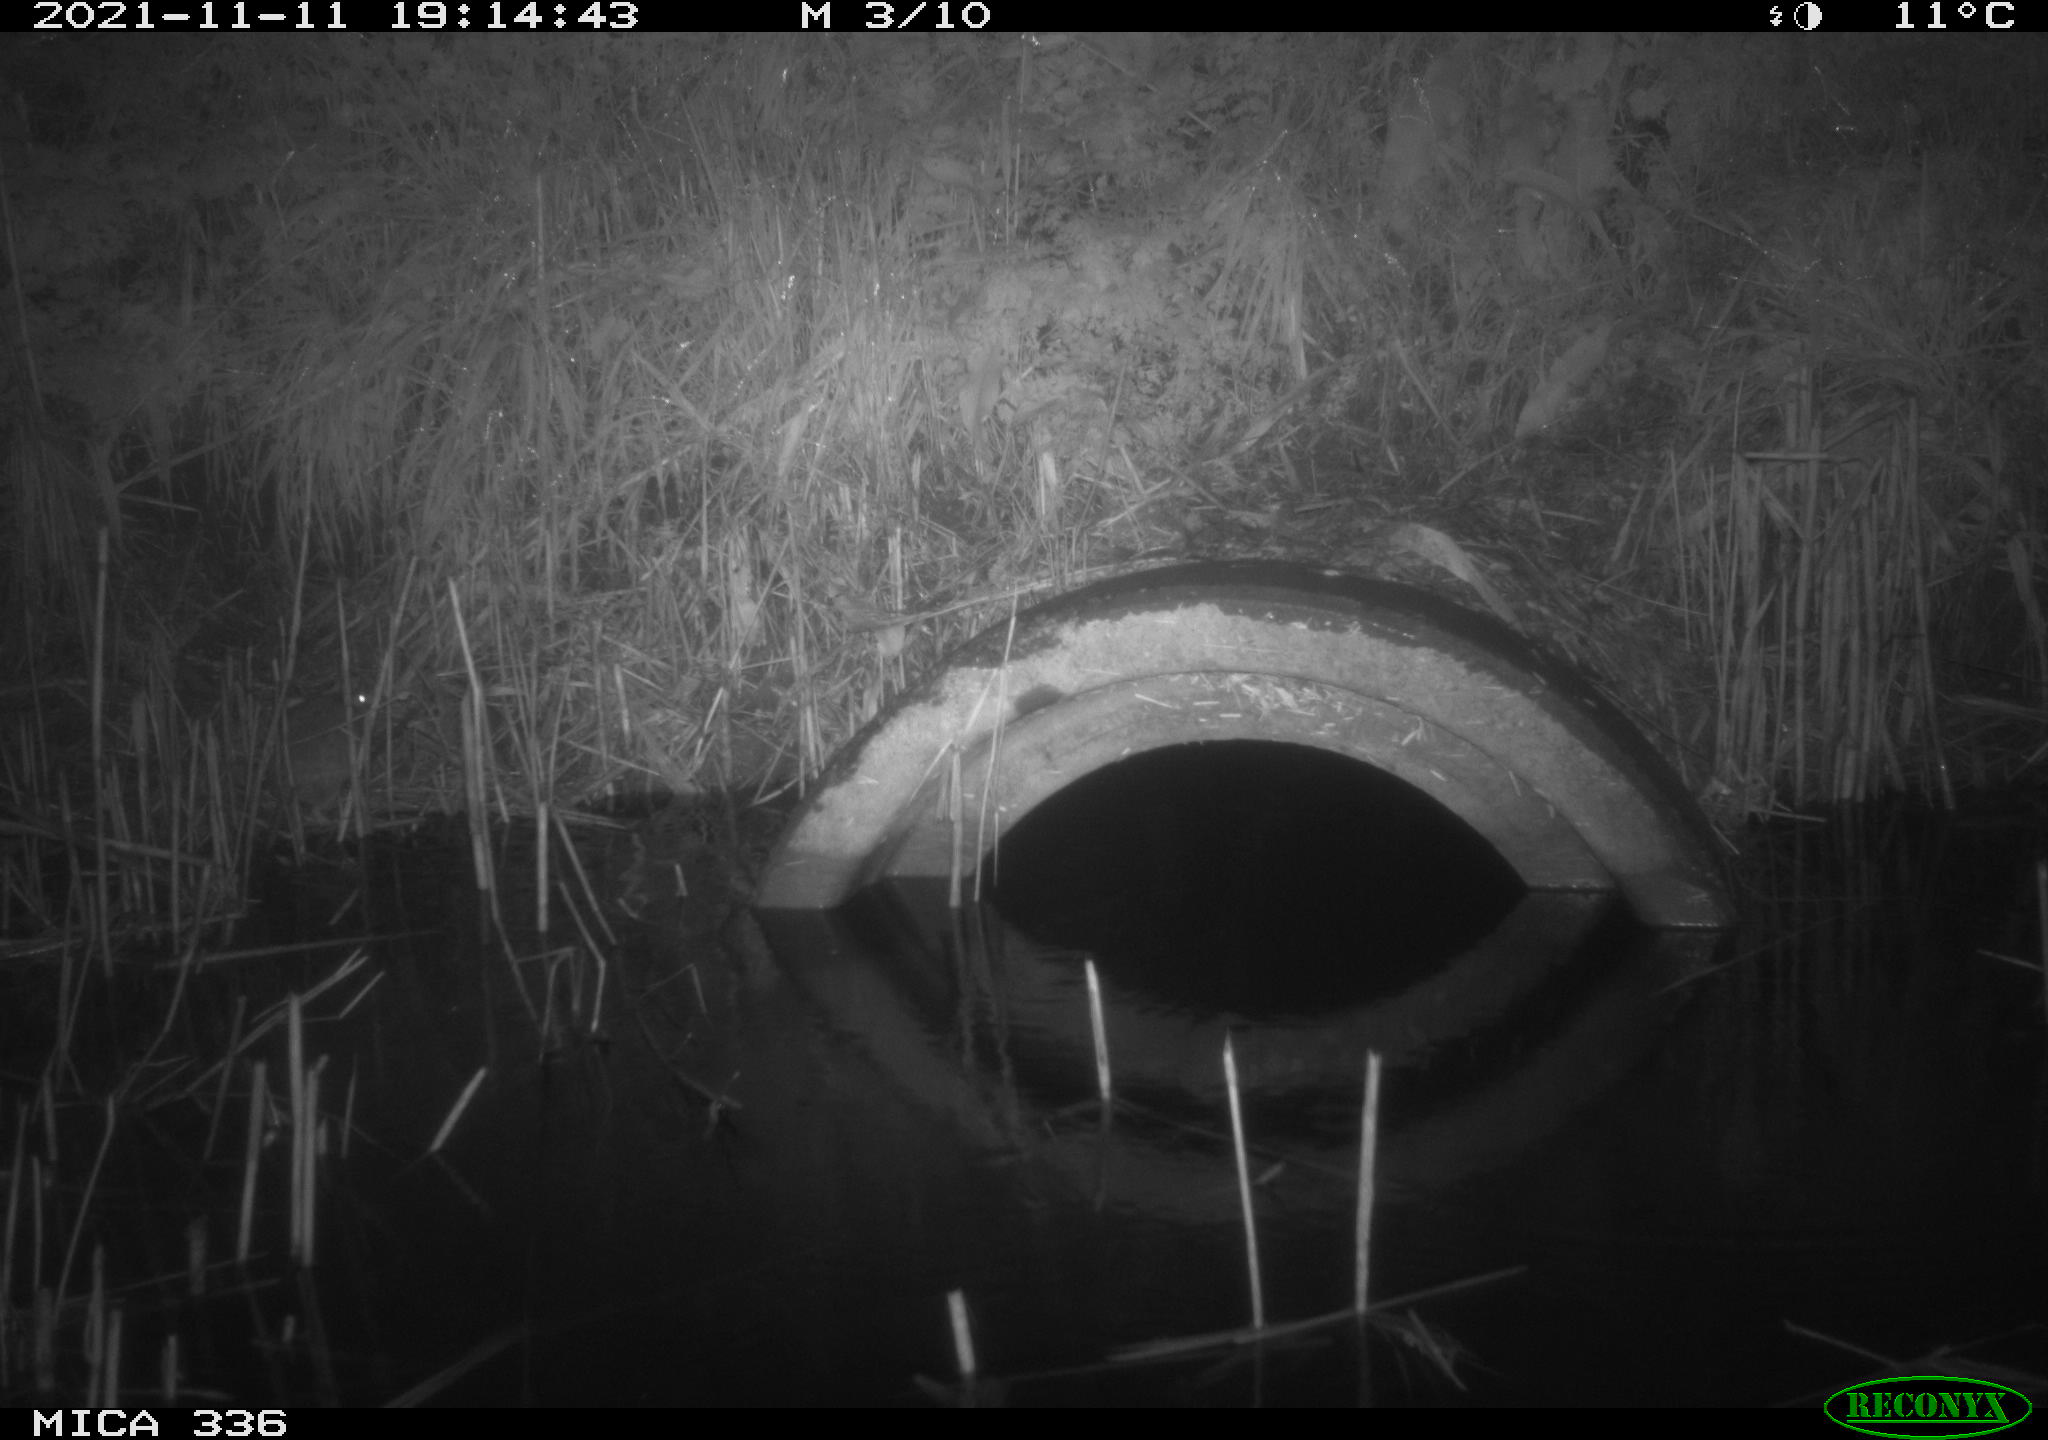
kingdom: Animalia
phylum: Chordata
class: Mammalia
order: Rodentia
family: Muridae
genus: Rattus
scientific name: Rattus norvegicus
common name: Brown rat
